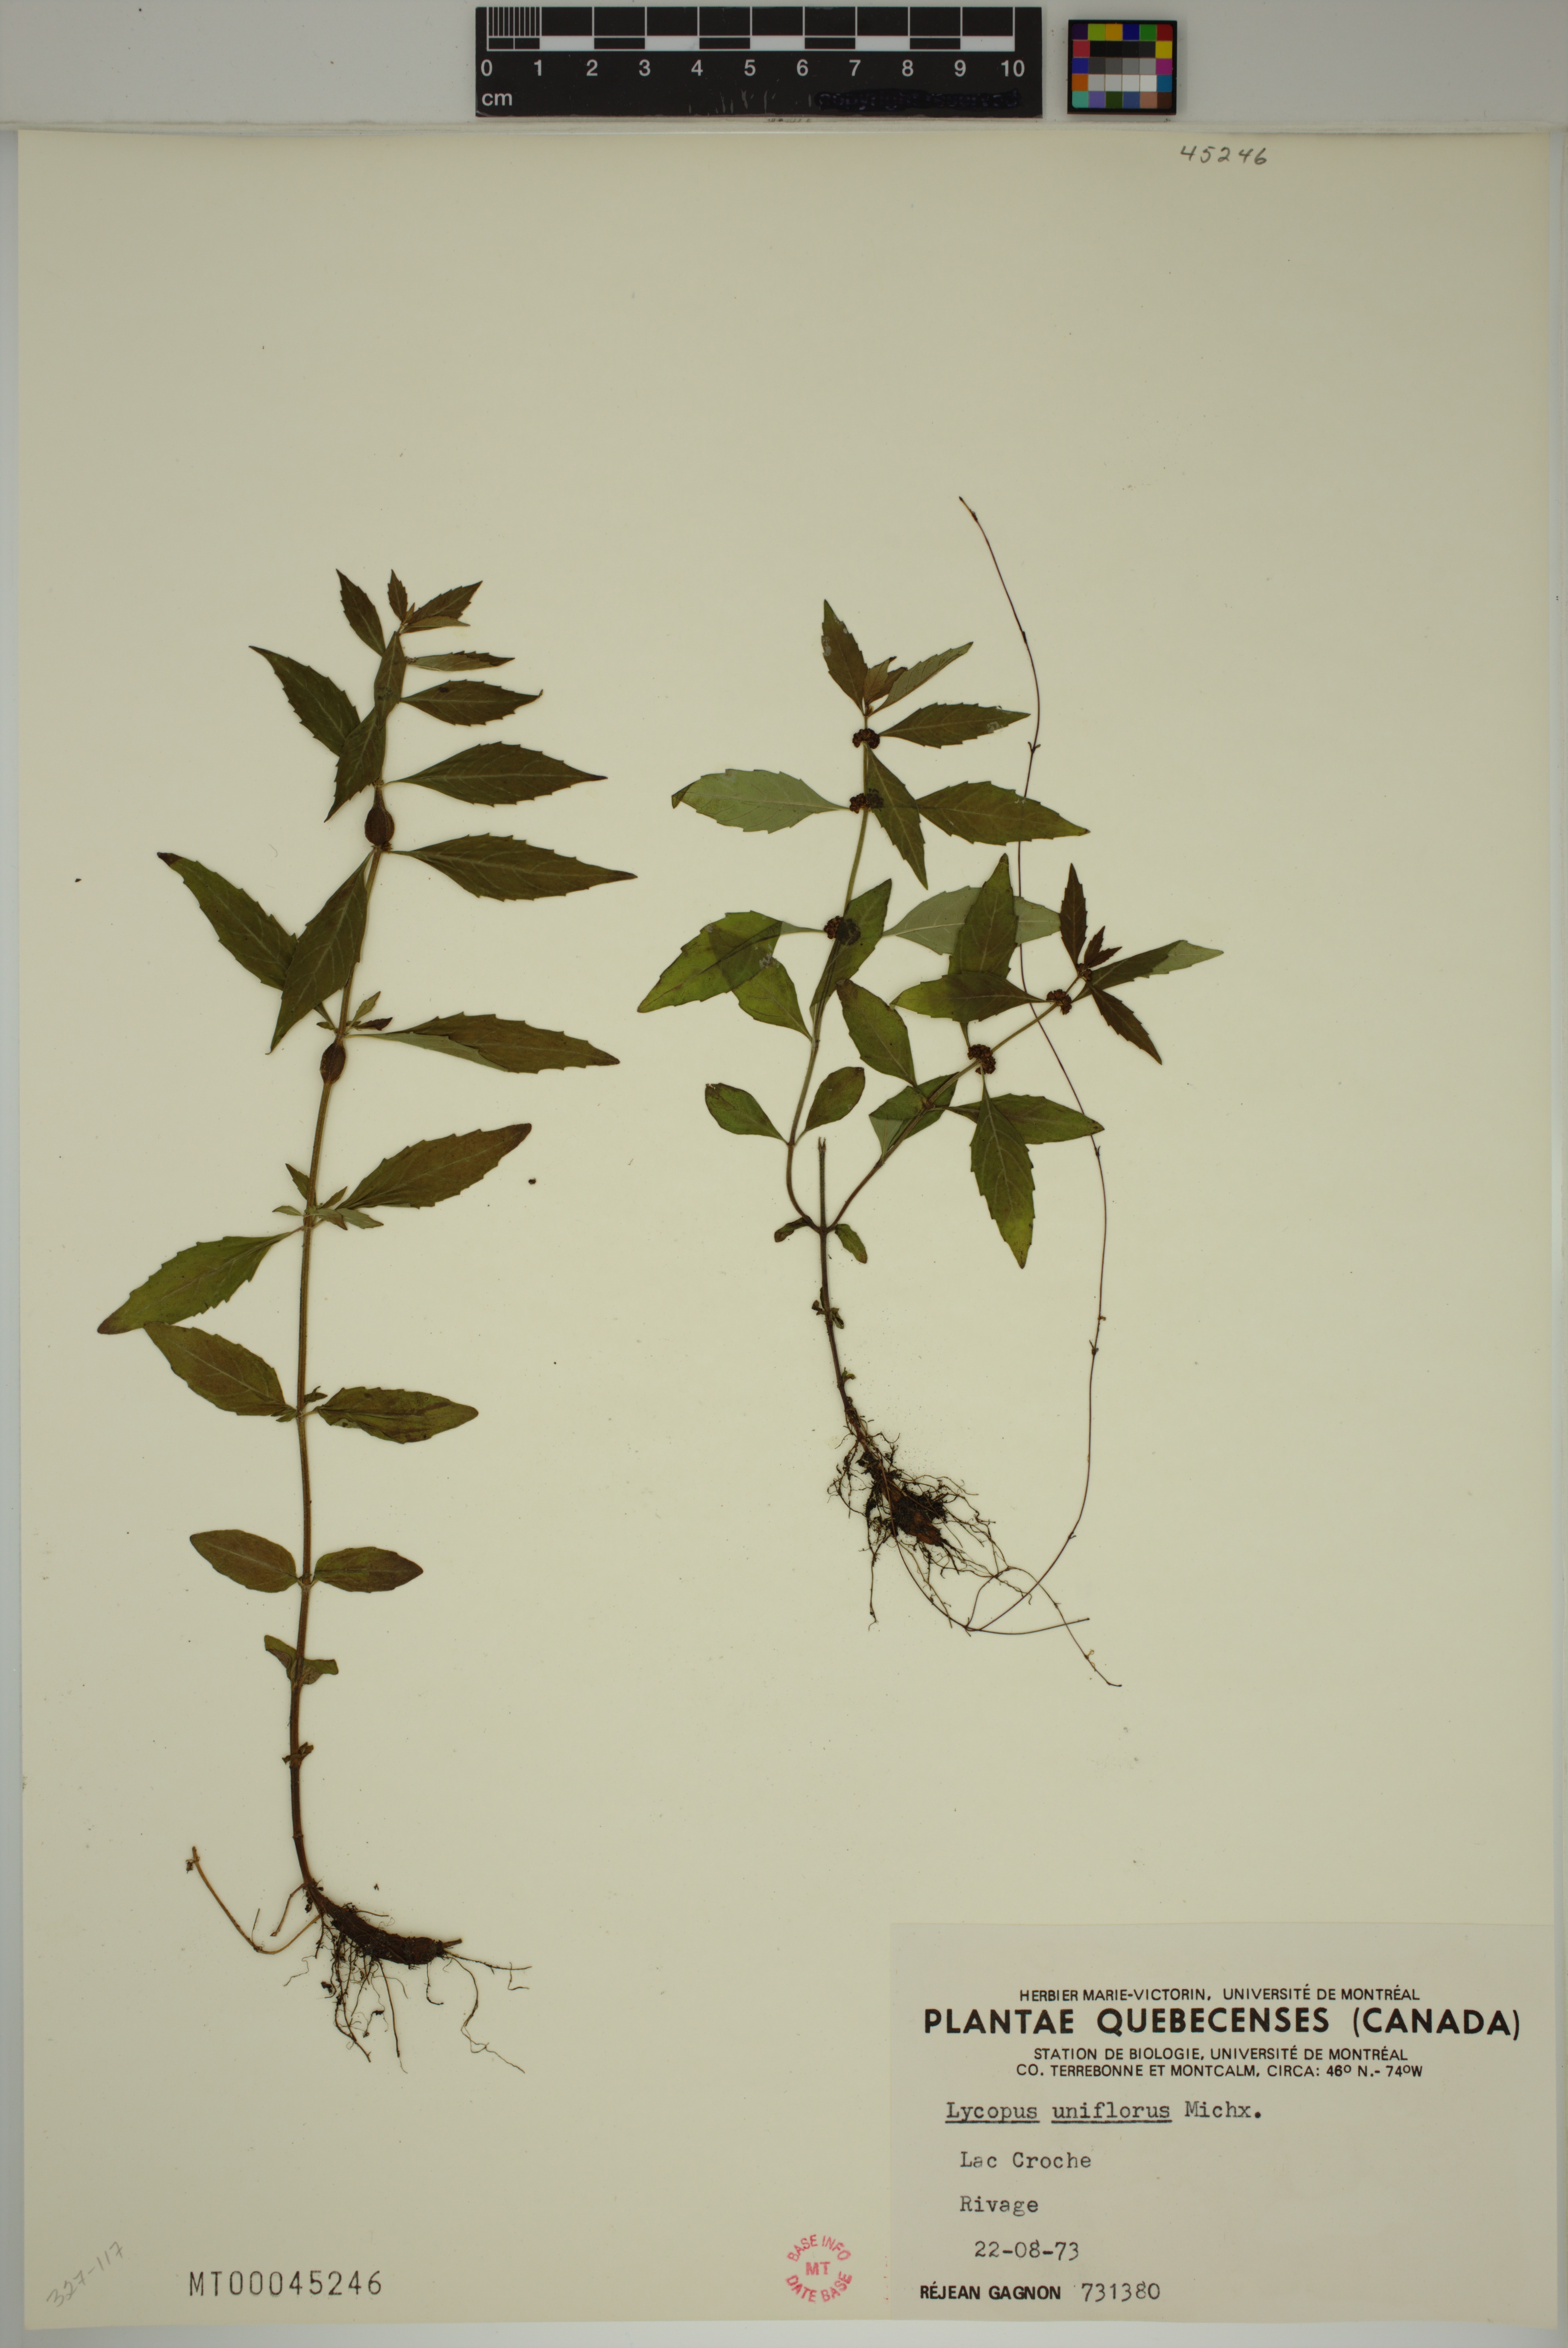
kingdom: Plantae
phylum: Tracheophyta
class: Magnoliopsida
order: Lamiales
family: Lamiaceae
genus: Lycopus
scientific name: Lycopus uniflorus
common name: Northern bugleweed
